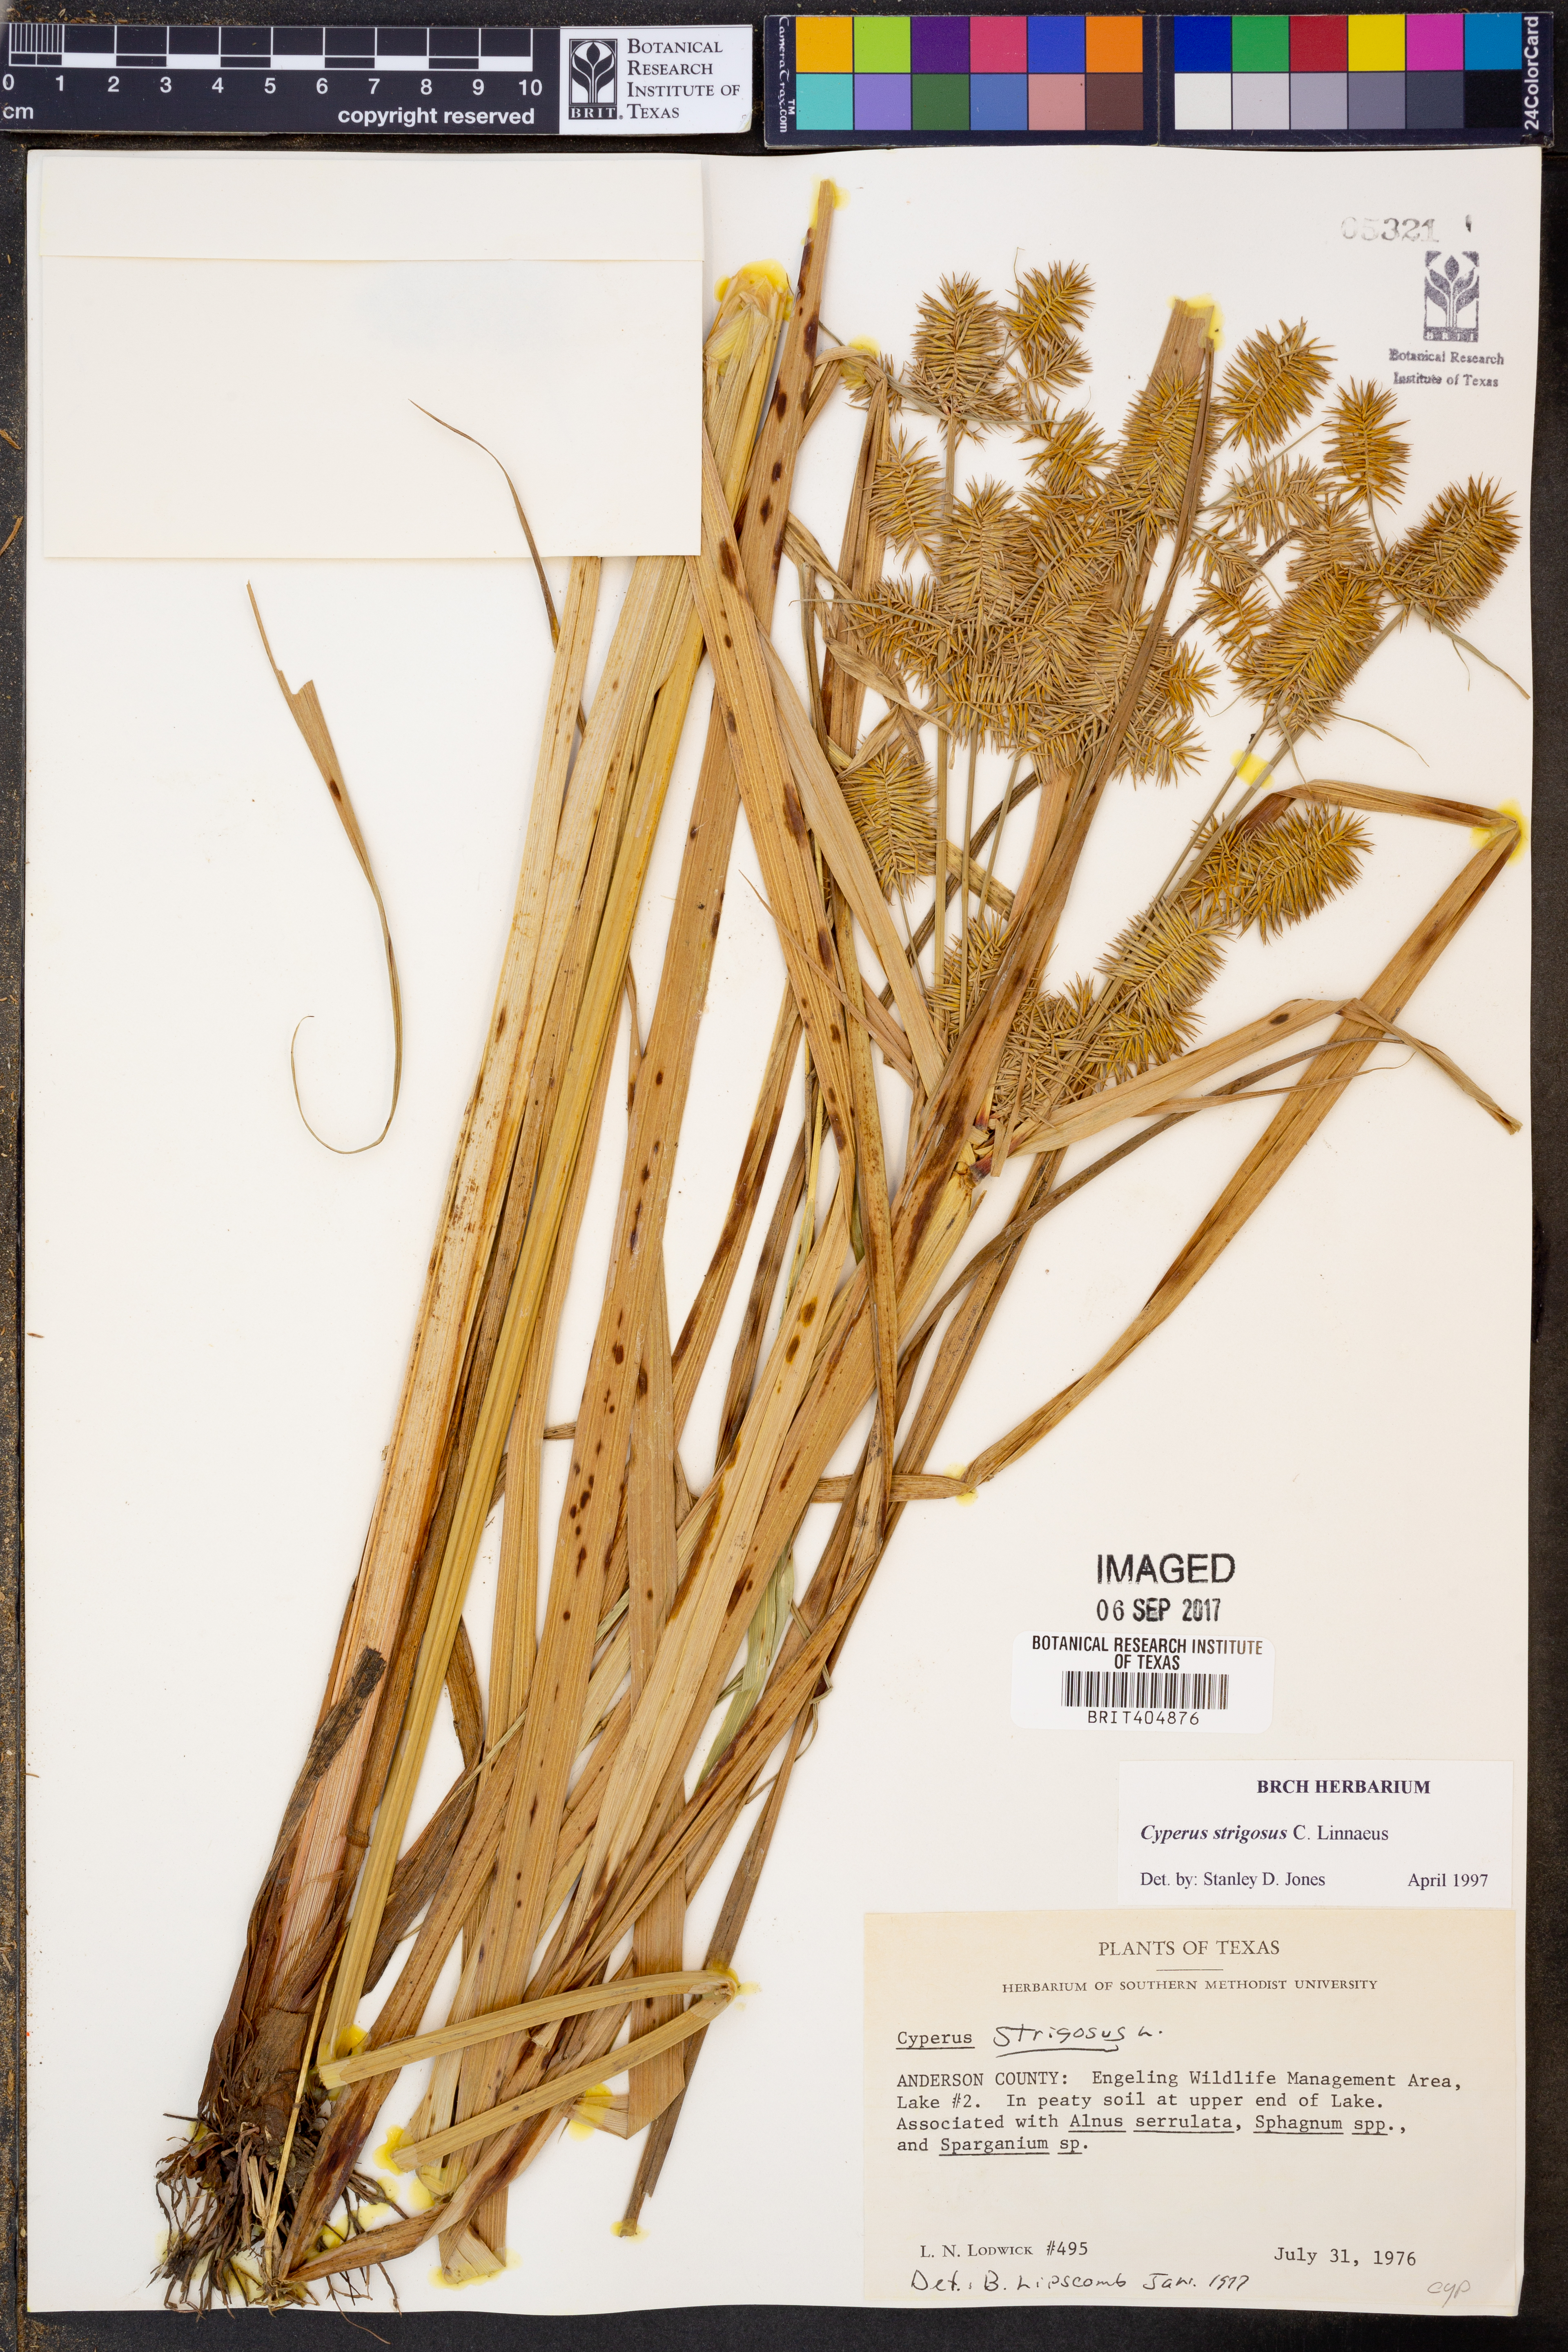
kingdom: Plantae
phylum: Tracheophyta
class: Liliopsida
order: Poales
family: Cyperaceae
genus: Cyperus
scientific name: Cyperus strigosus
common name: False nutsedge
